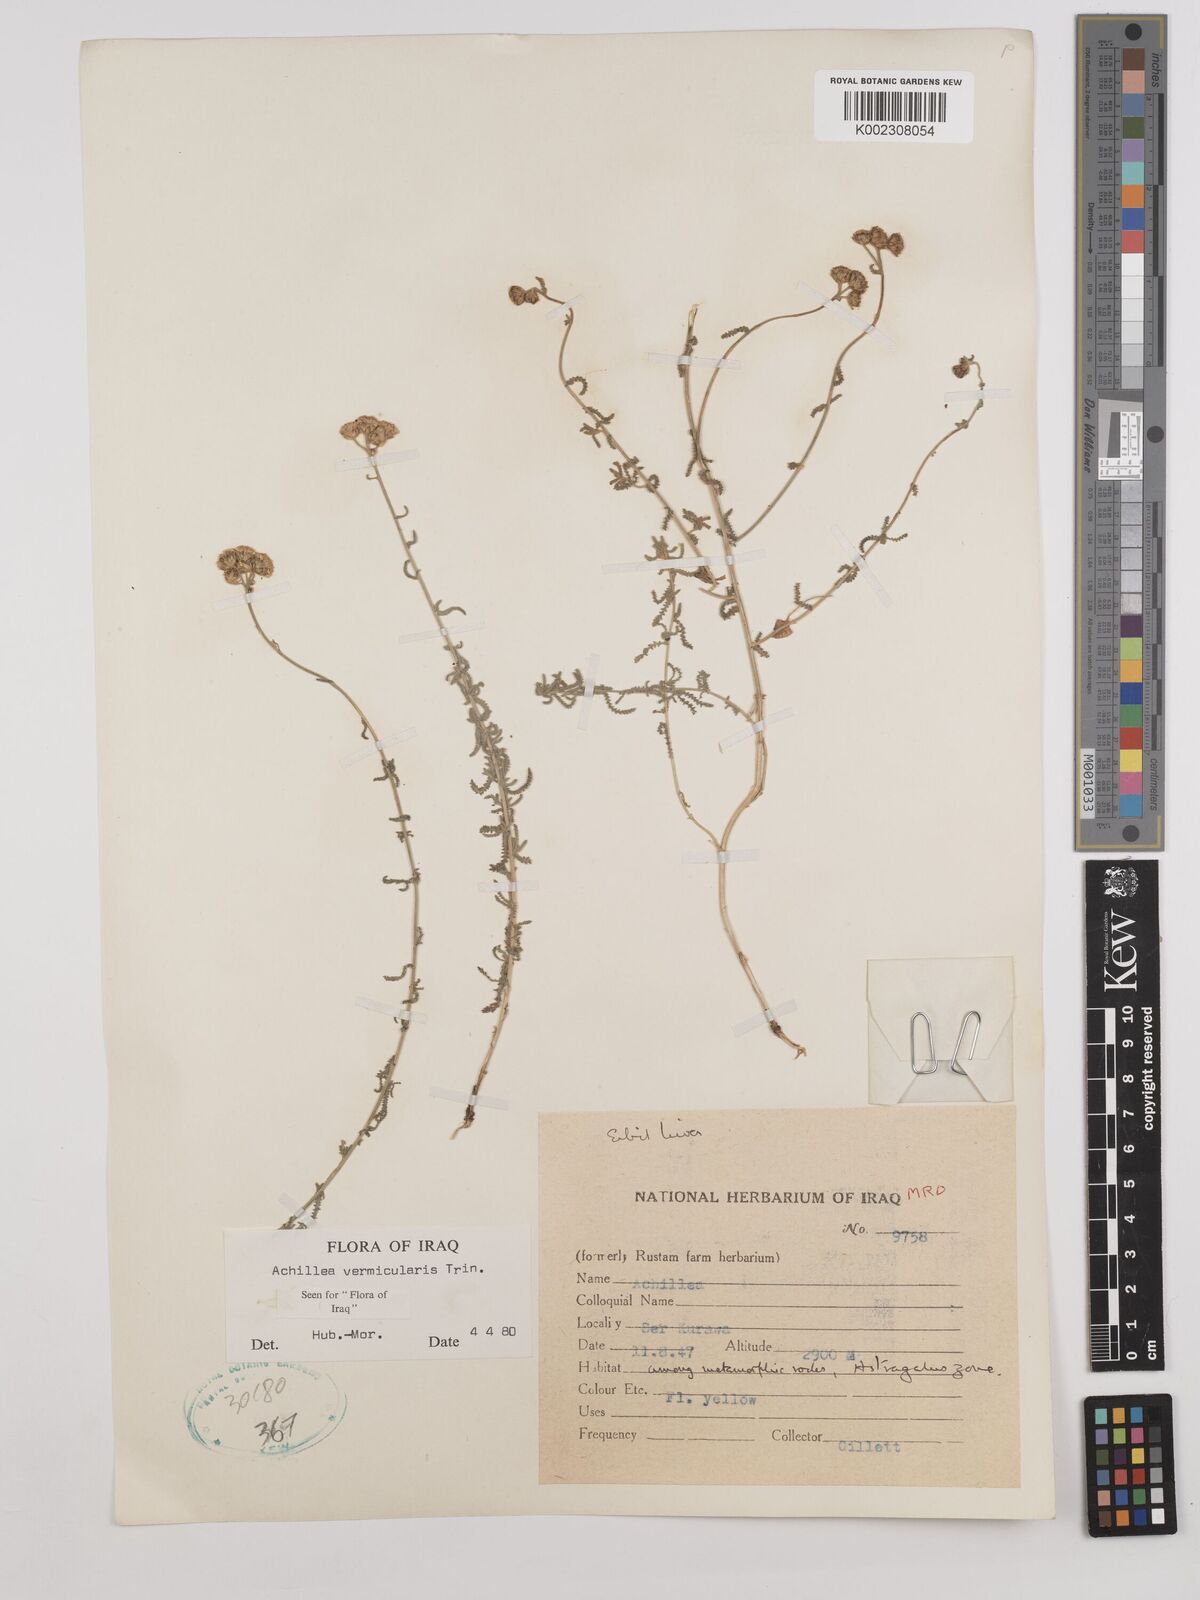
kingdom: Plantae
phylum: Tracheophyta
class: Magnoliopsida
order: Asterales
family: Asteraceae
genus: Achillea
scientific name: Achillea vermicularis
